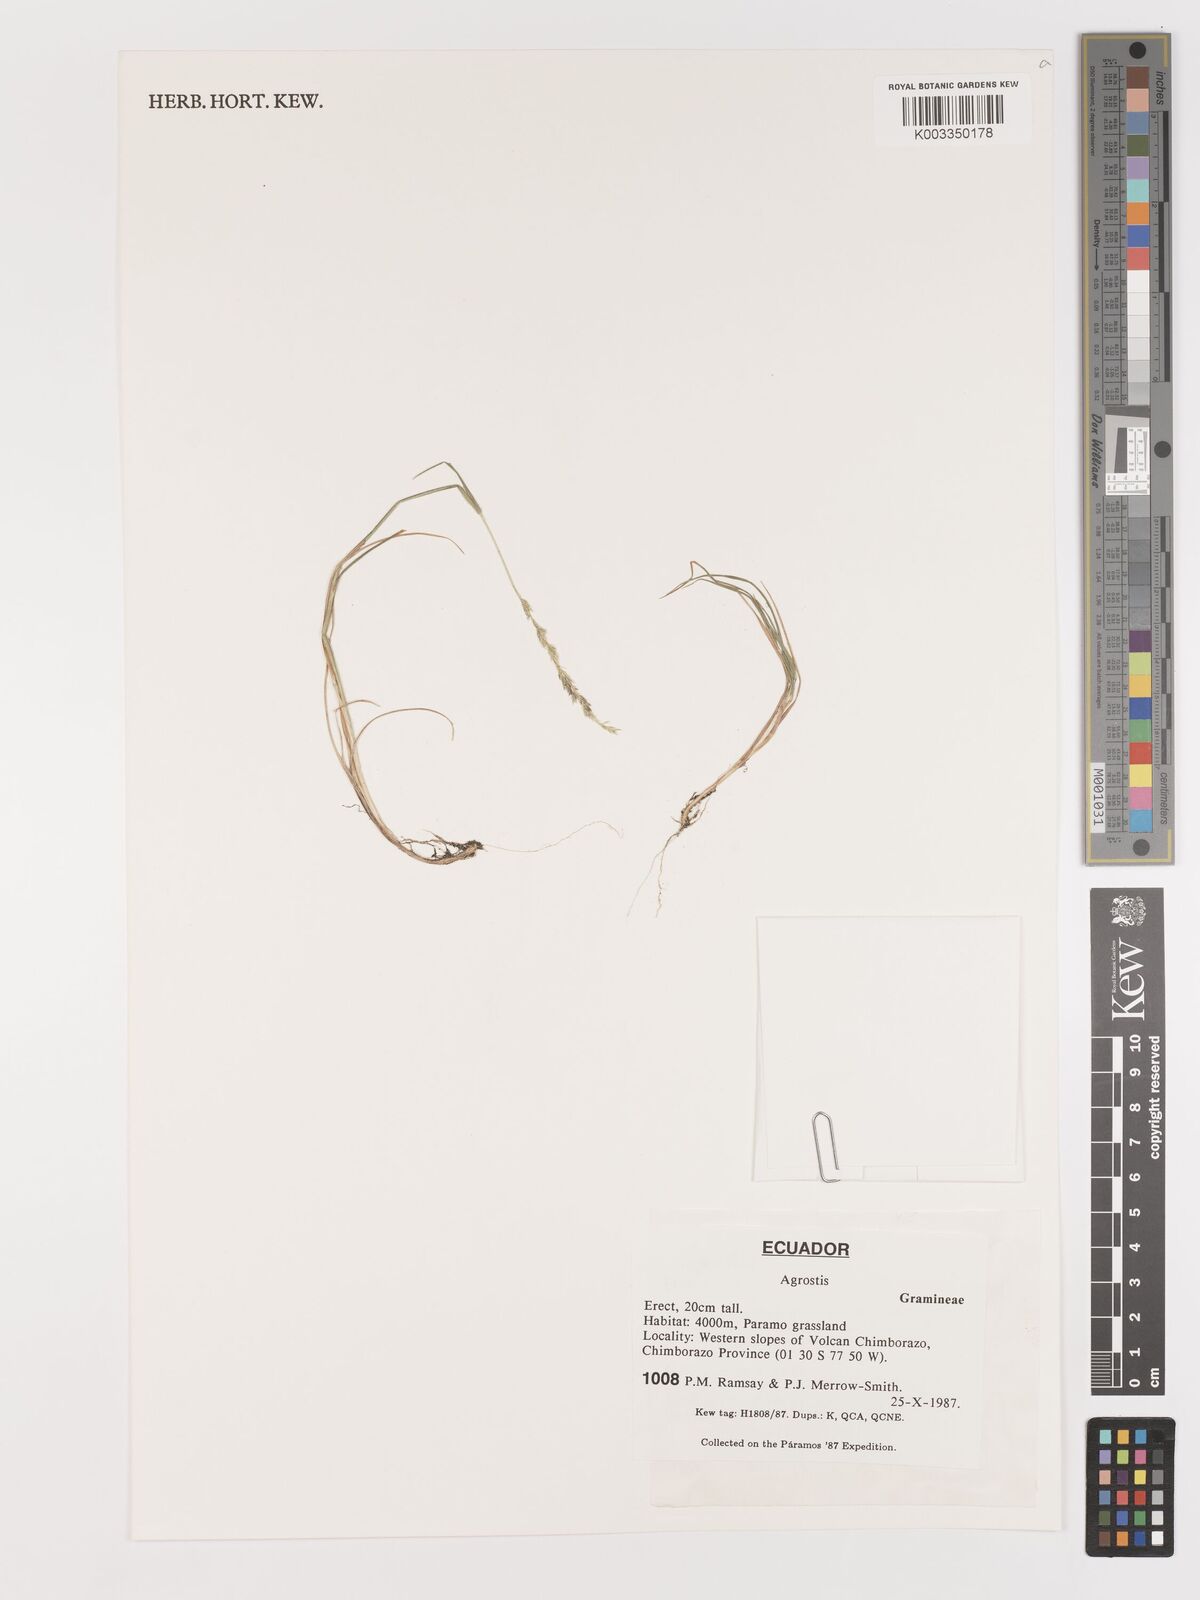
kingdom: Plantae
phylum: Tracheophyta
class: Liliopsida
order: Poales
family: Poaceae
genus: Agrostis
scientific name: Agrostis
